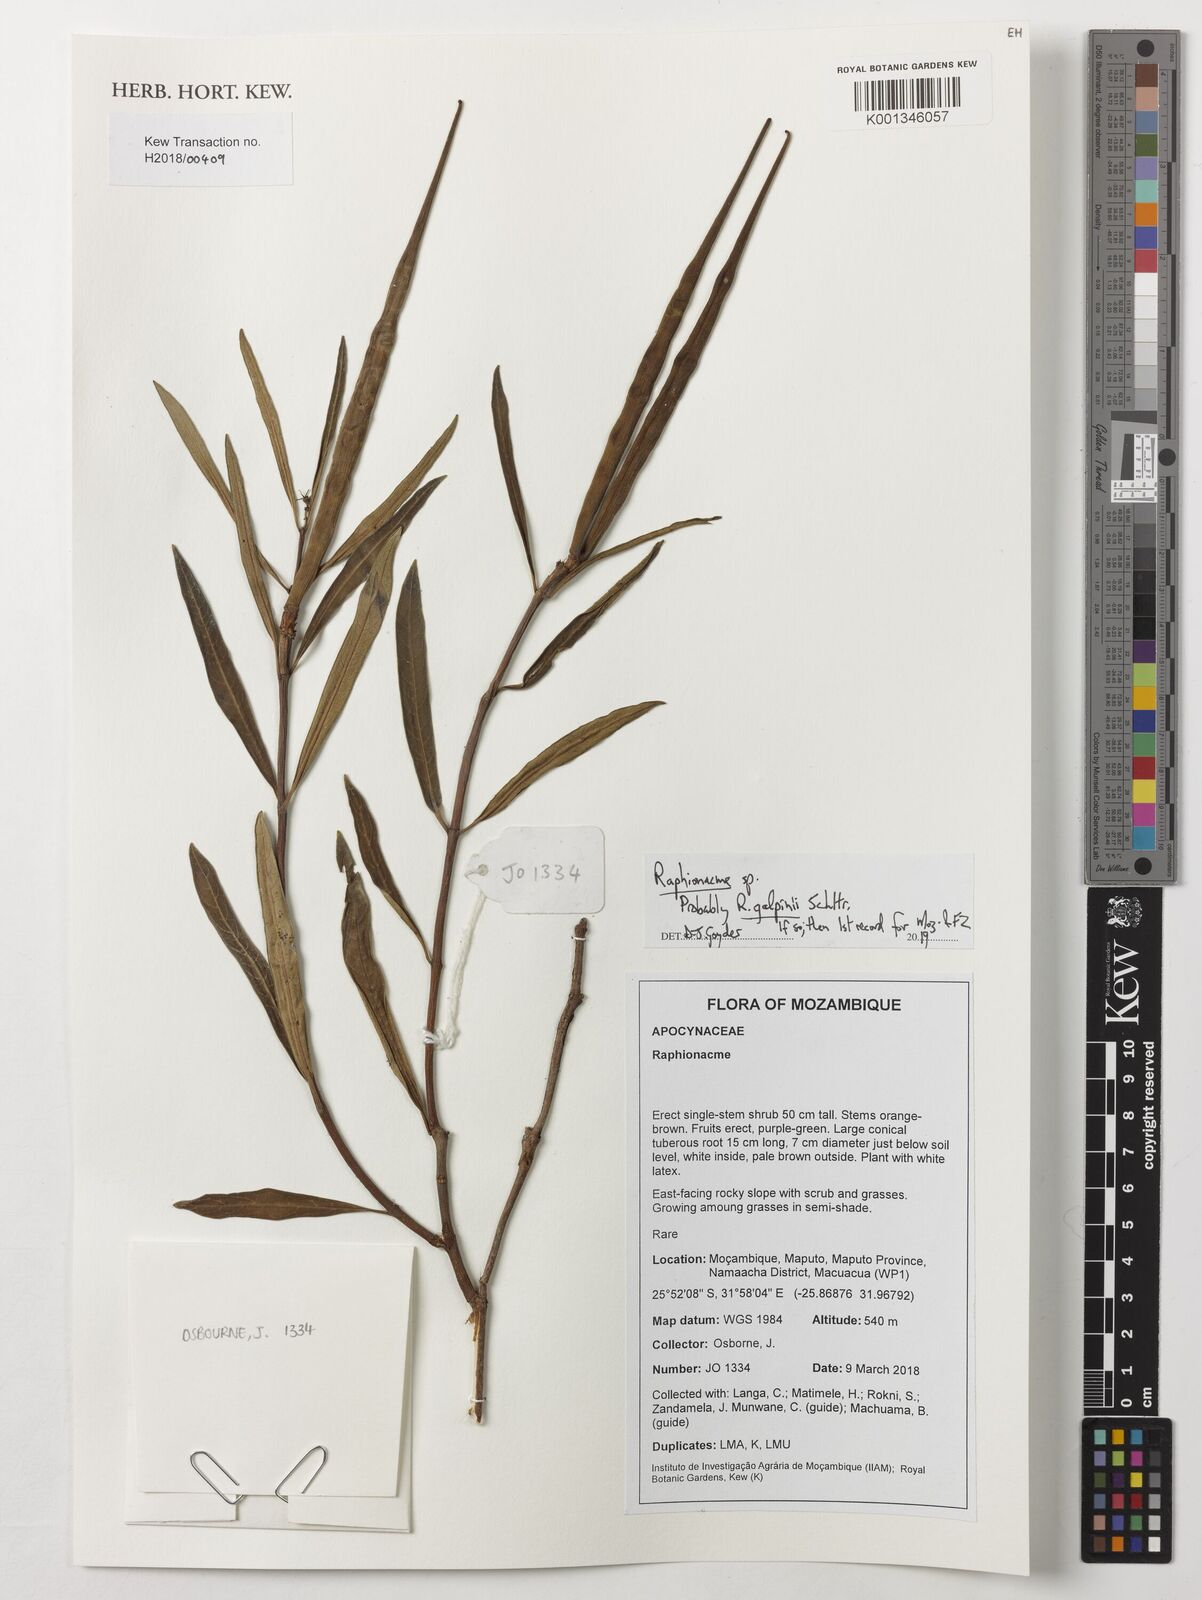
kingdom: Plantae
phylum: Tracheophyta
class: Magnoliopsida
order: Gentianales
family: Apocynaceae
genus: Raphionacme
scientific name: Raphionacme galpinii
